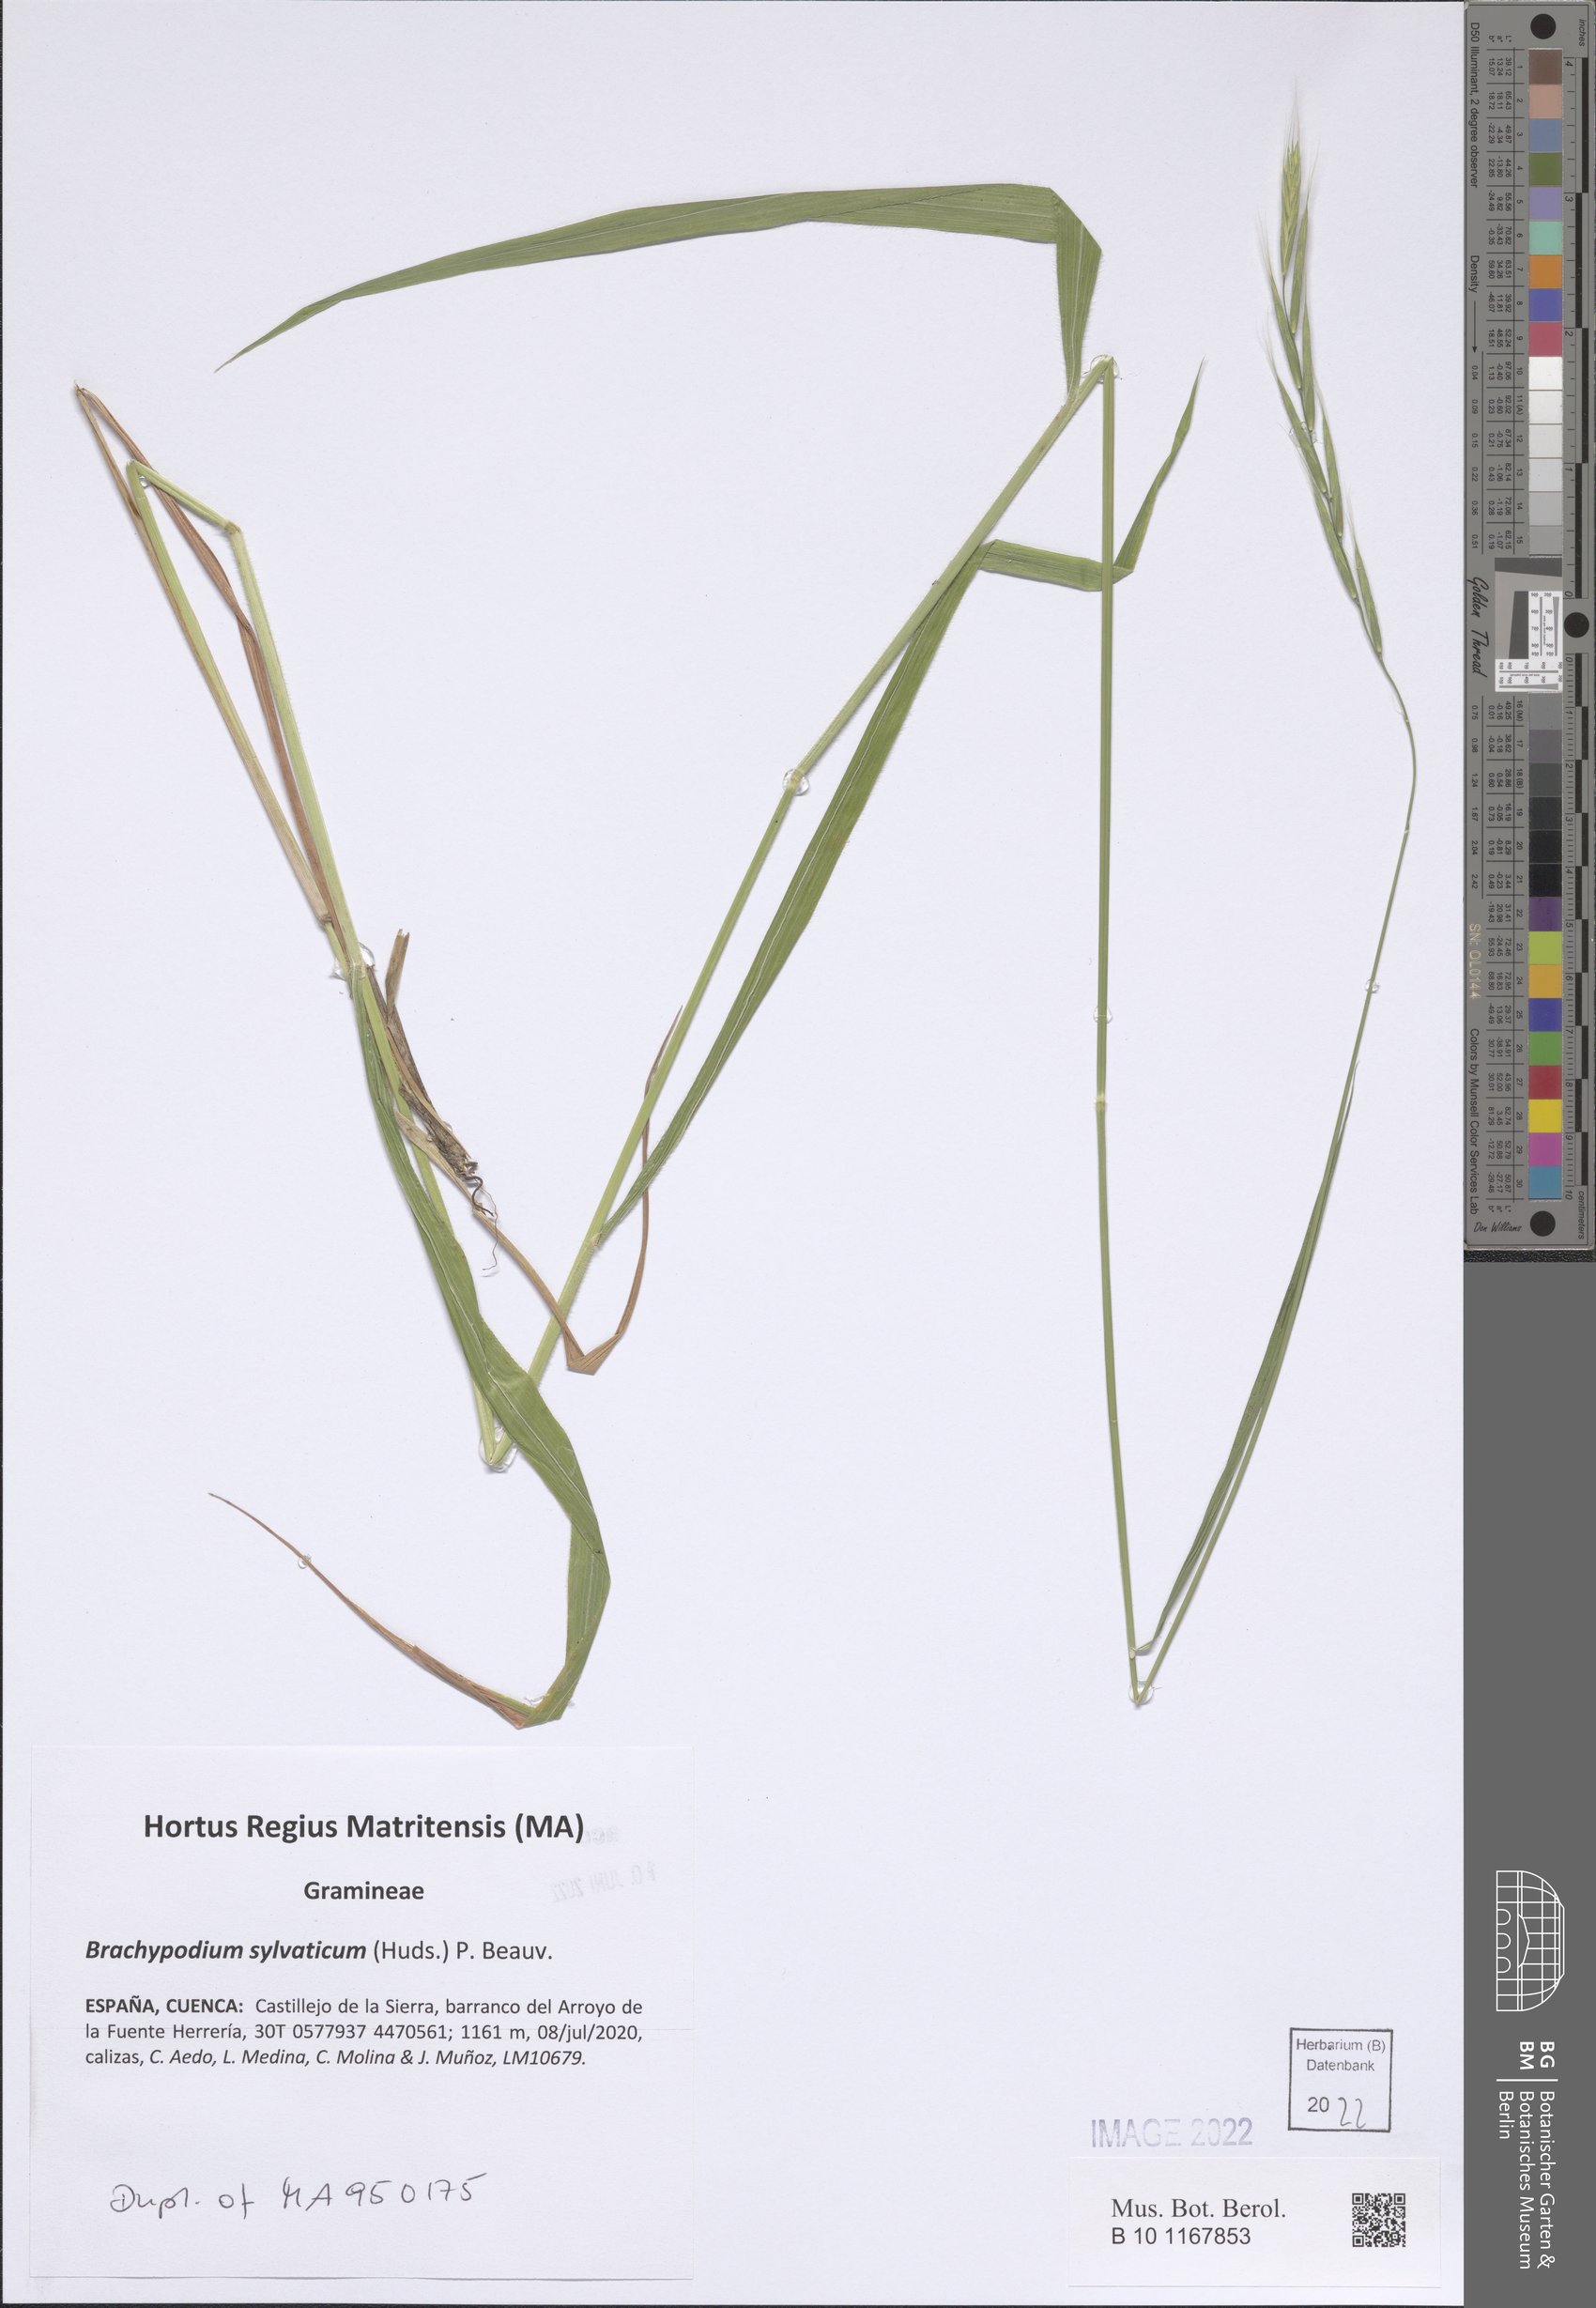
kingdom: Plantae
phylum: Tracheophyta
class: Liliopsida
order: Poales
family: Poaceae
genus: Brachypodium
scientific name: Brachypodium sylvaticum
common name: False-brome
